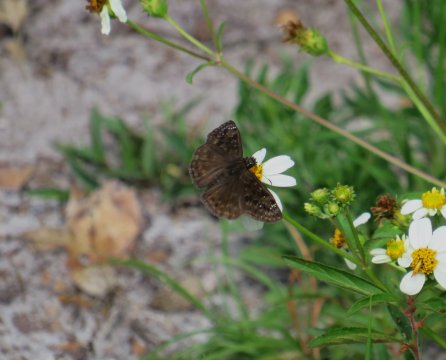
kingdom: Animalia
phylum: Arthropoda
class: Insecta
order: Lepidoptera
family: Hesperiidae
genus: Gesta
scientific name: Gesta
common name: Horace's Duskywing
